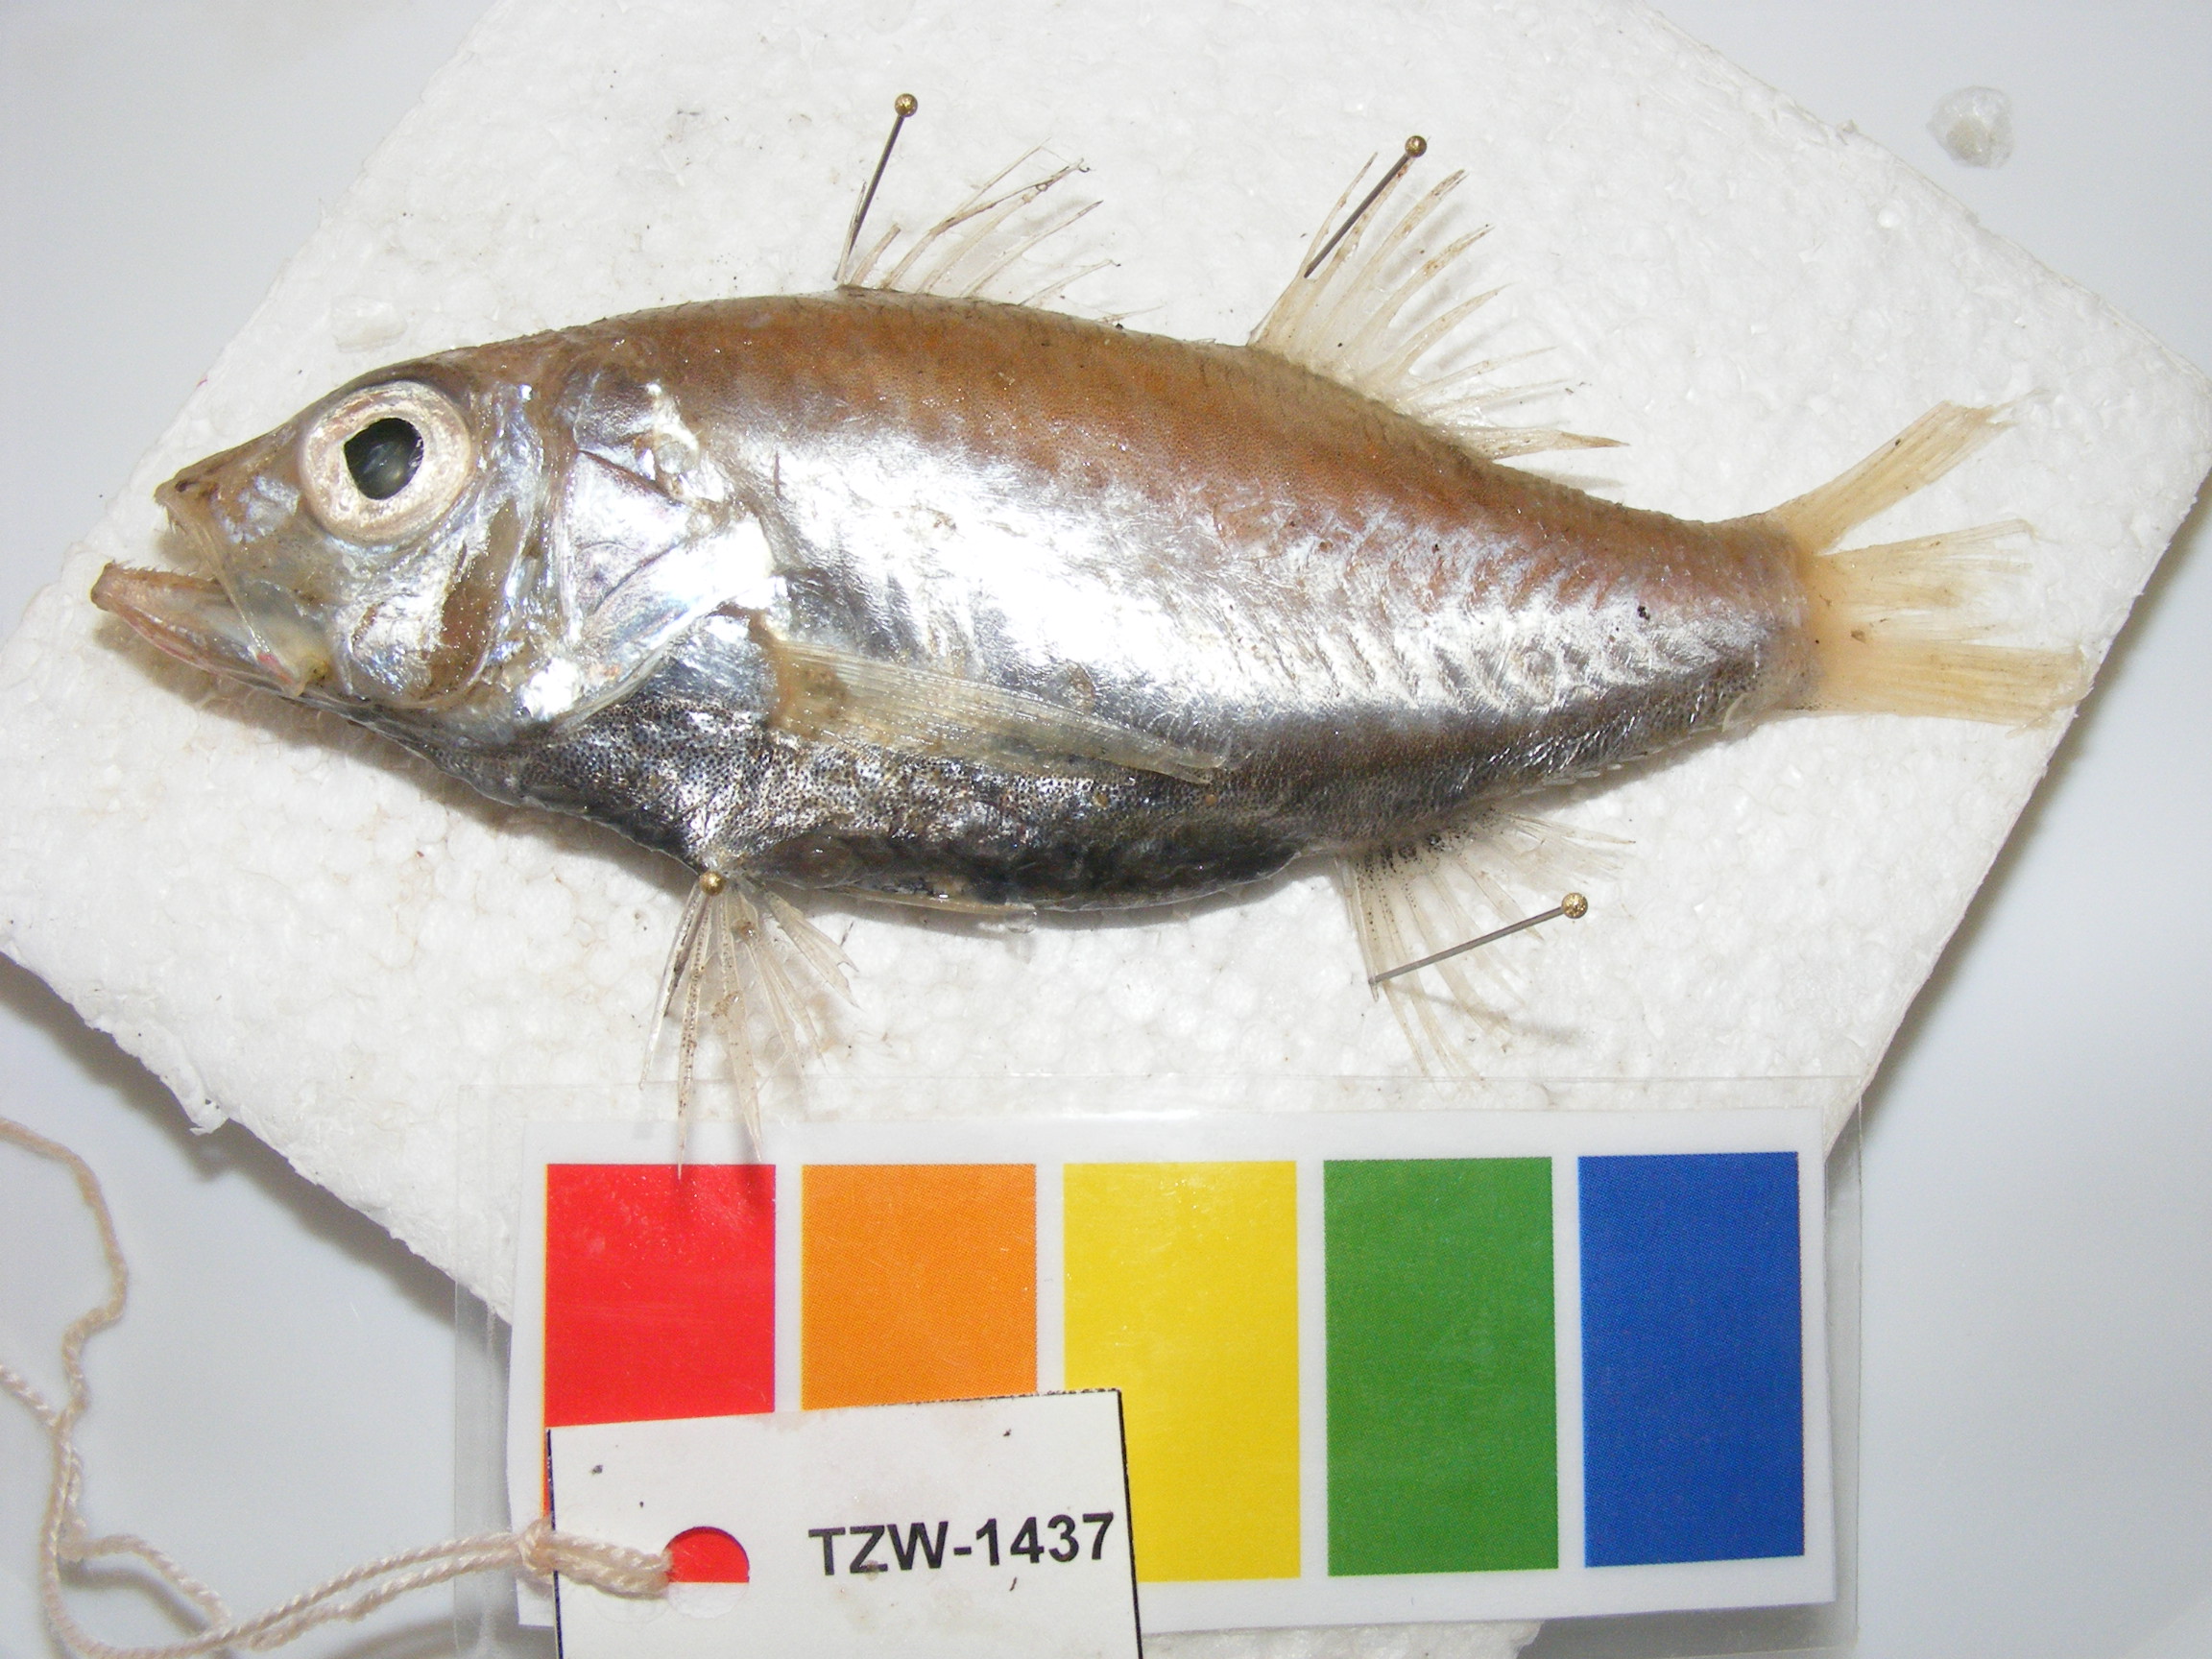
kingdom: Animalia
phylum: Chordata
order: Perciformes
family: Acropomatidae
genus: Acropoma
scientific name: Acropoma heemstrai
